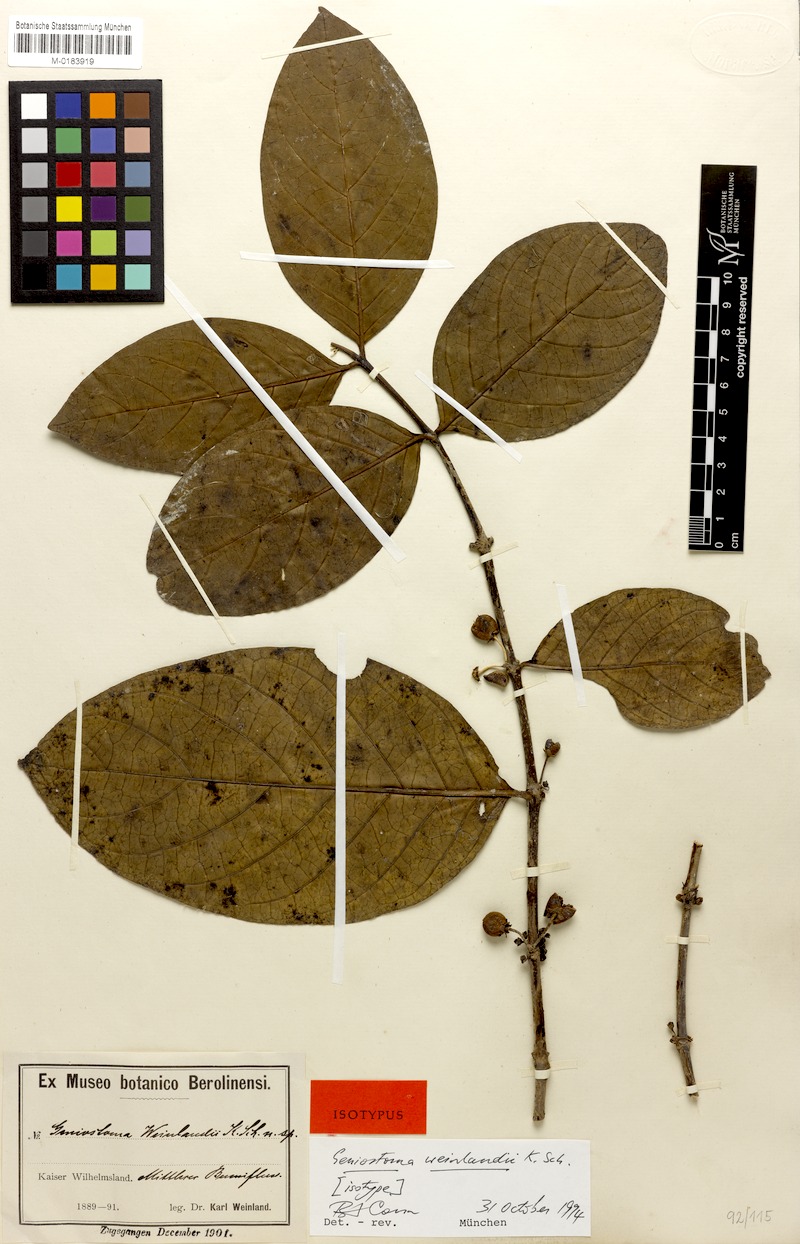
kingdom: Plantae
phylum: Tracheophyta
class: Magnoliopsida
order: Gentianales
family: Loganiaceae
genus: Geniostoma
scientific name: Geniostoma weinlandii
